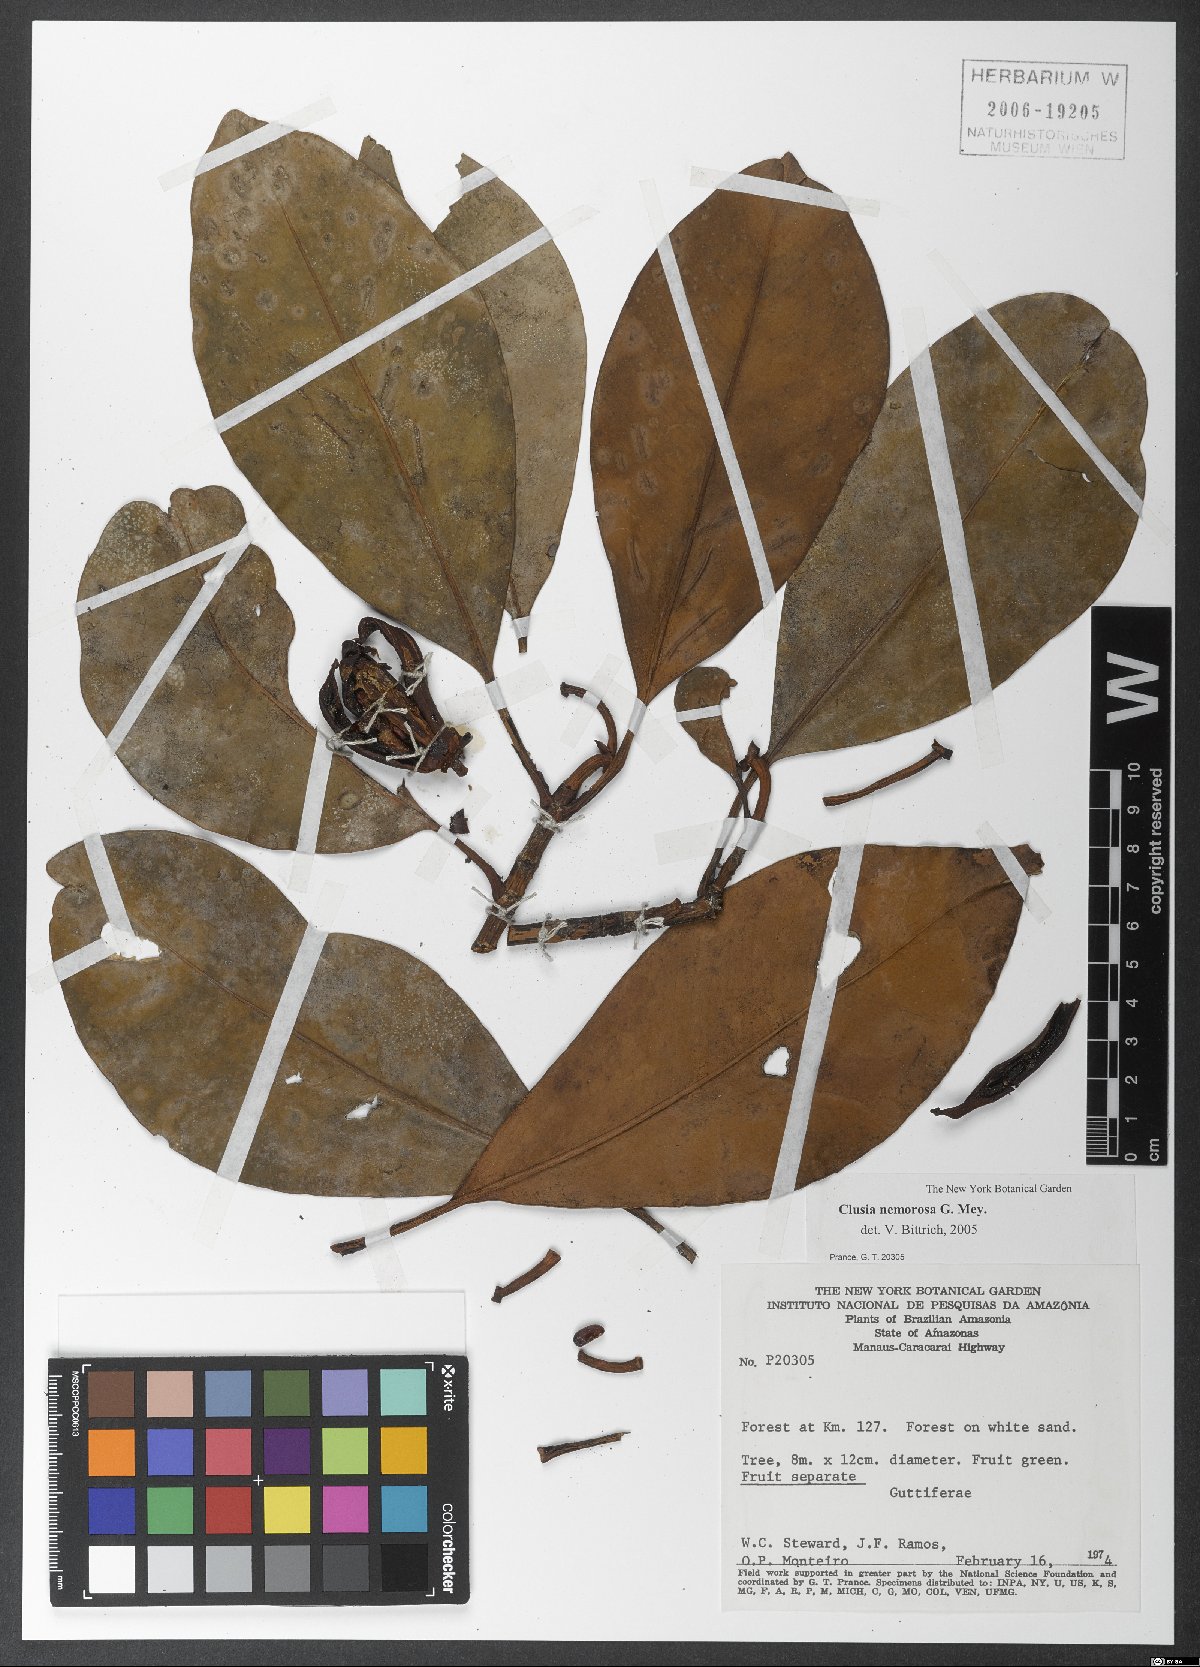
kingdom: Plantae
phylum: Tracheophyta
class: Magnoliopsida
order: Malpighiales
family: Clusiaceae
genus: Clusia
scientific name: Clusia nemorosa
